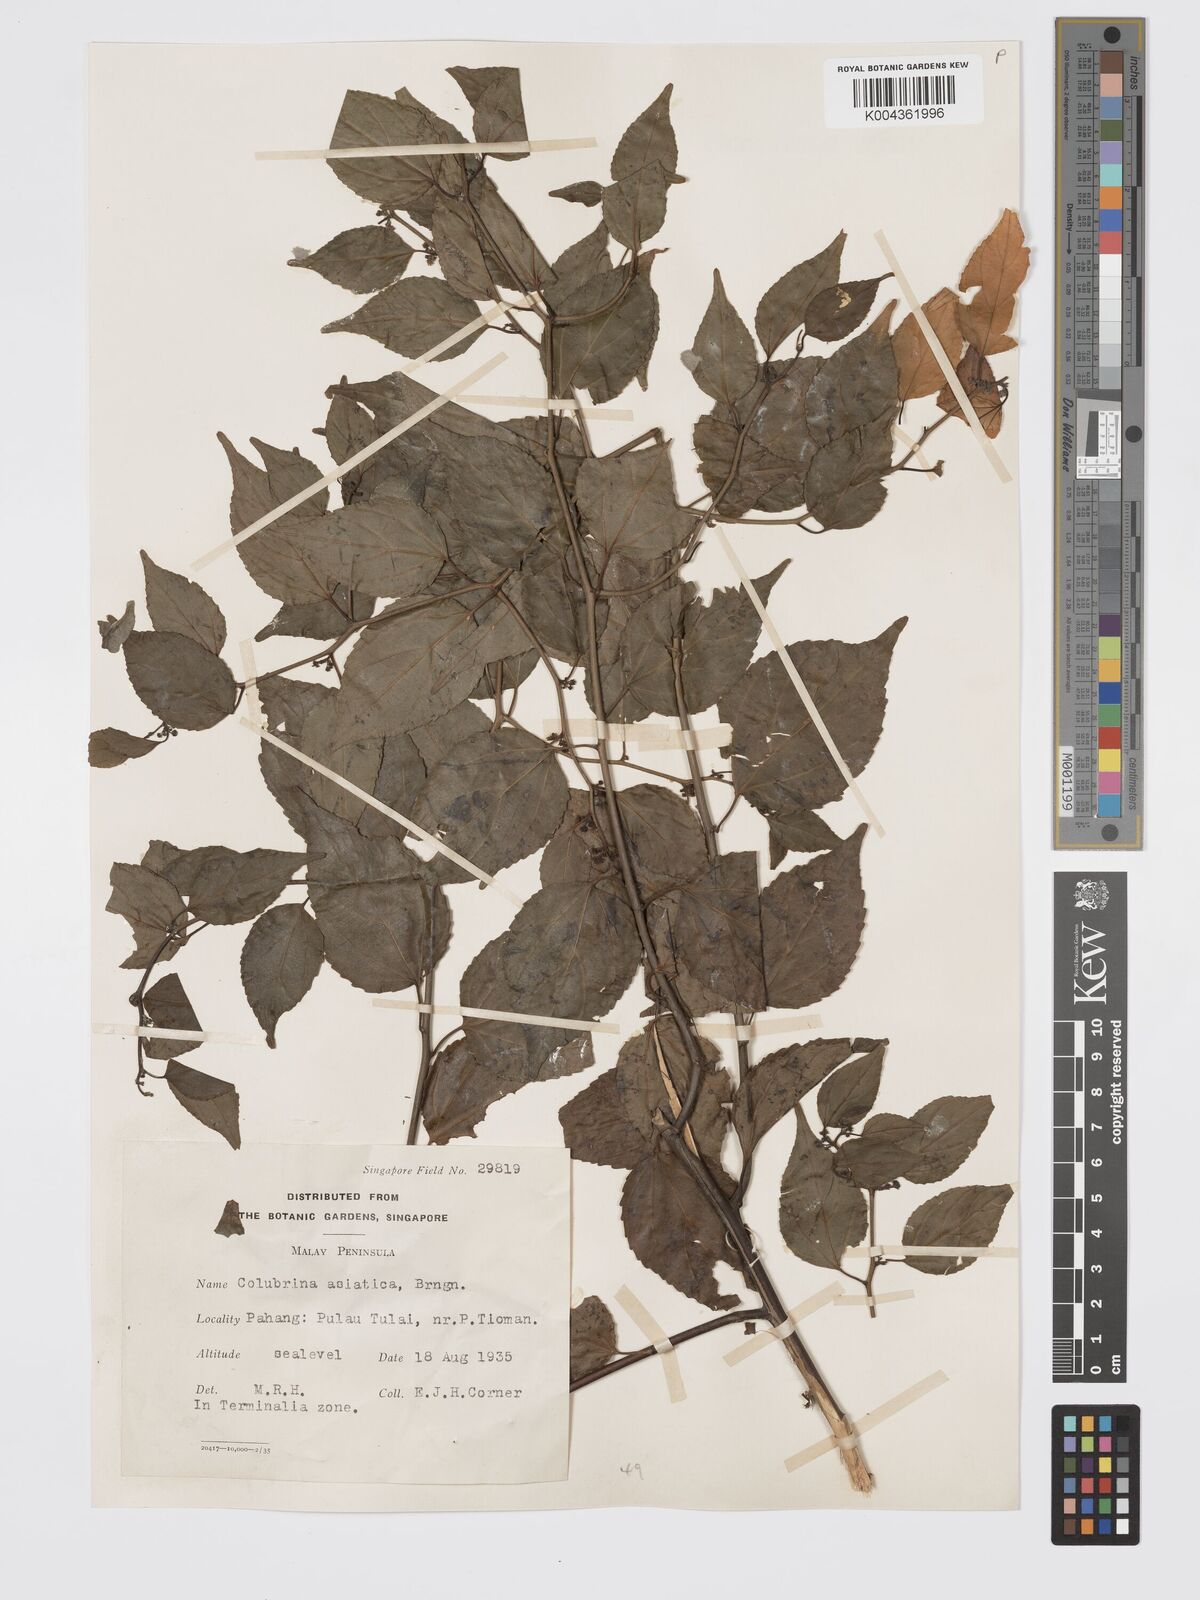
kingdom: Plantae
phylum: Tracheophyta
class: Magnoliopsida
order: Rosales
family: Rhamnaceae
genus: Colubrina
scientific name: Colubrina asiatica
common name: Asian nakedwood
